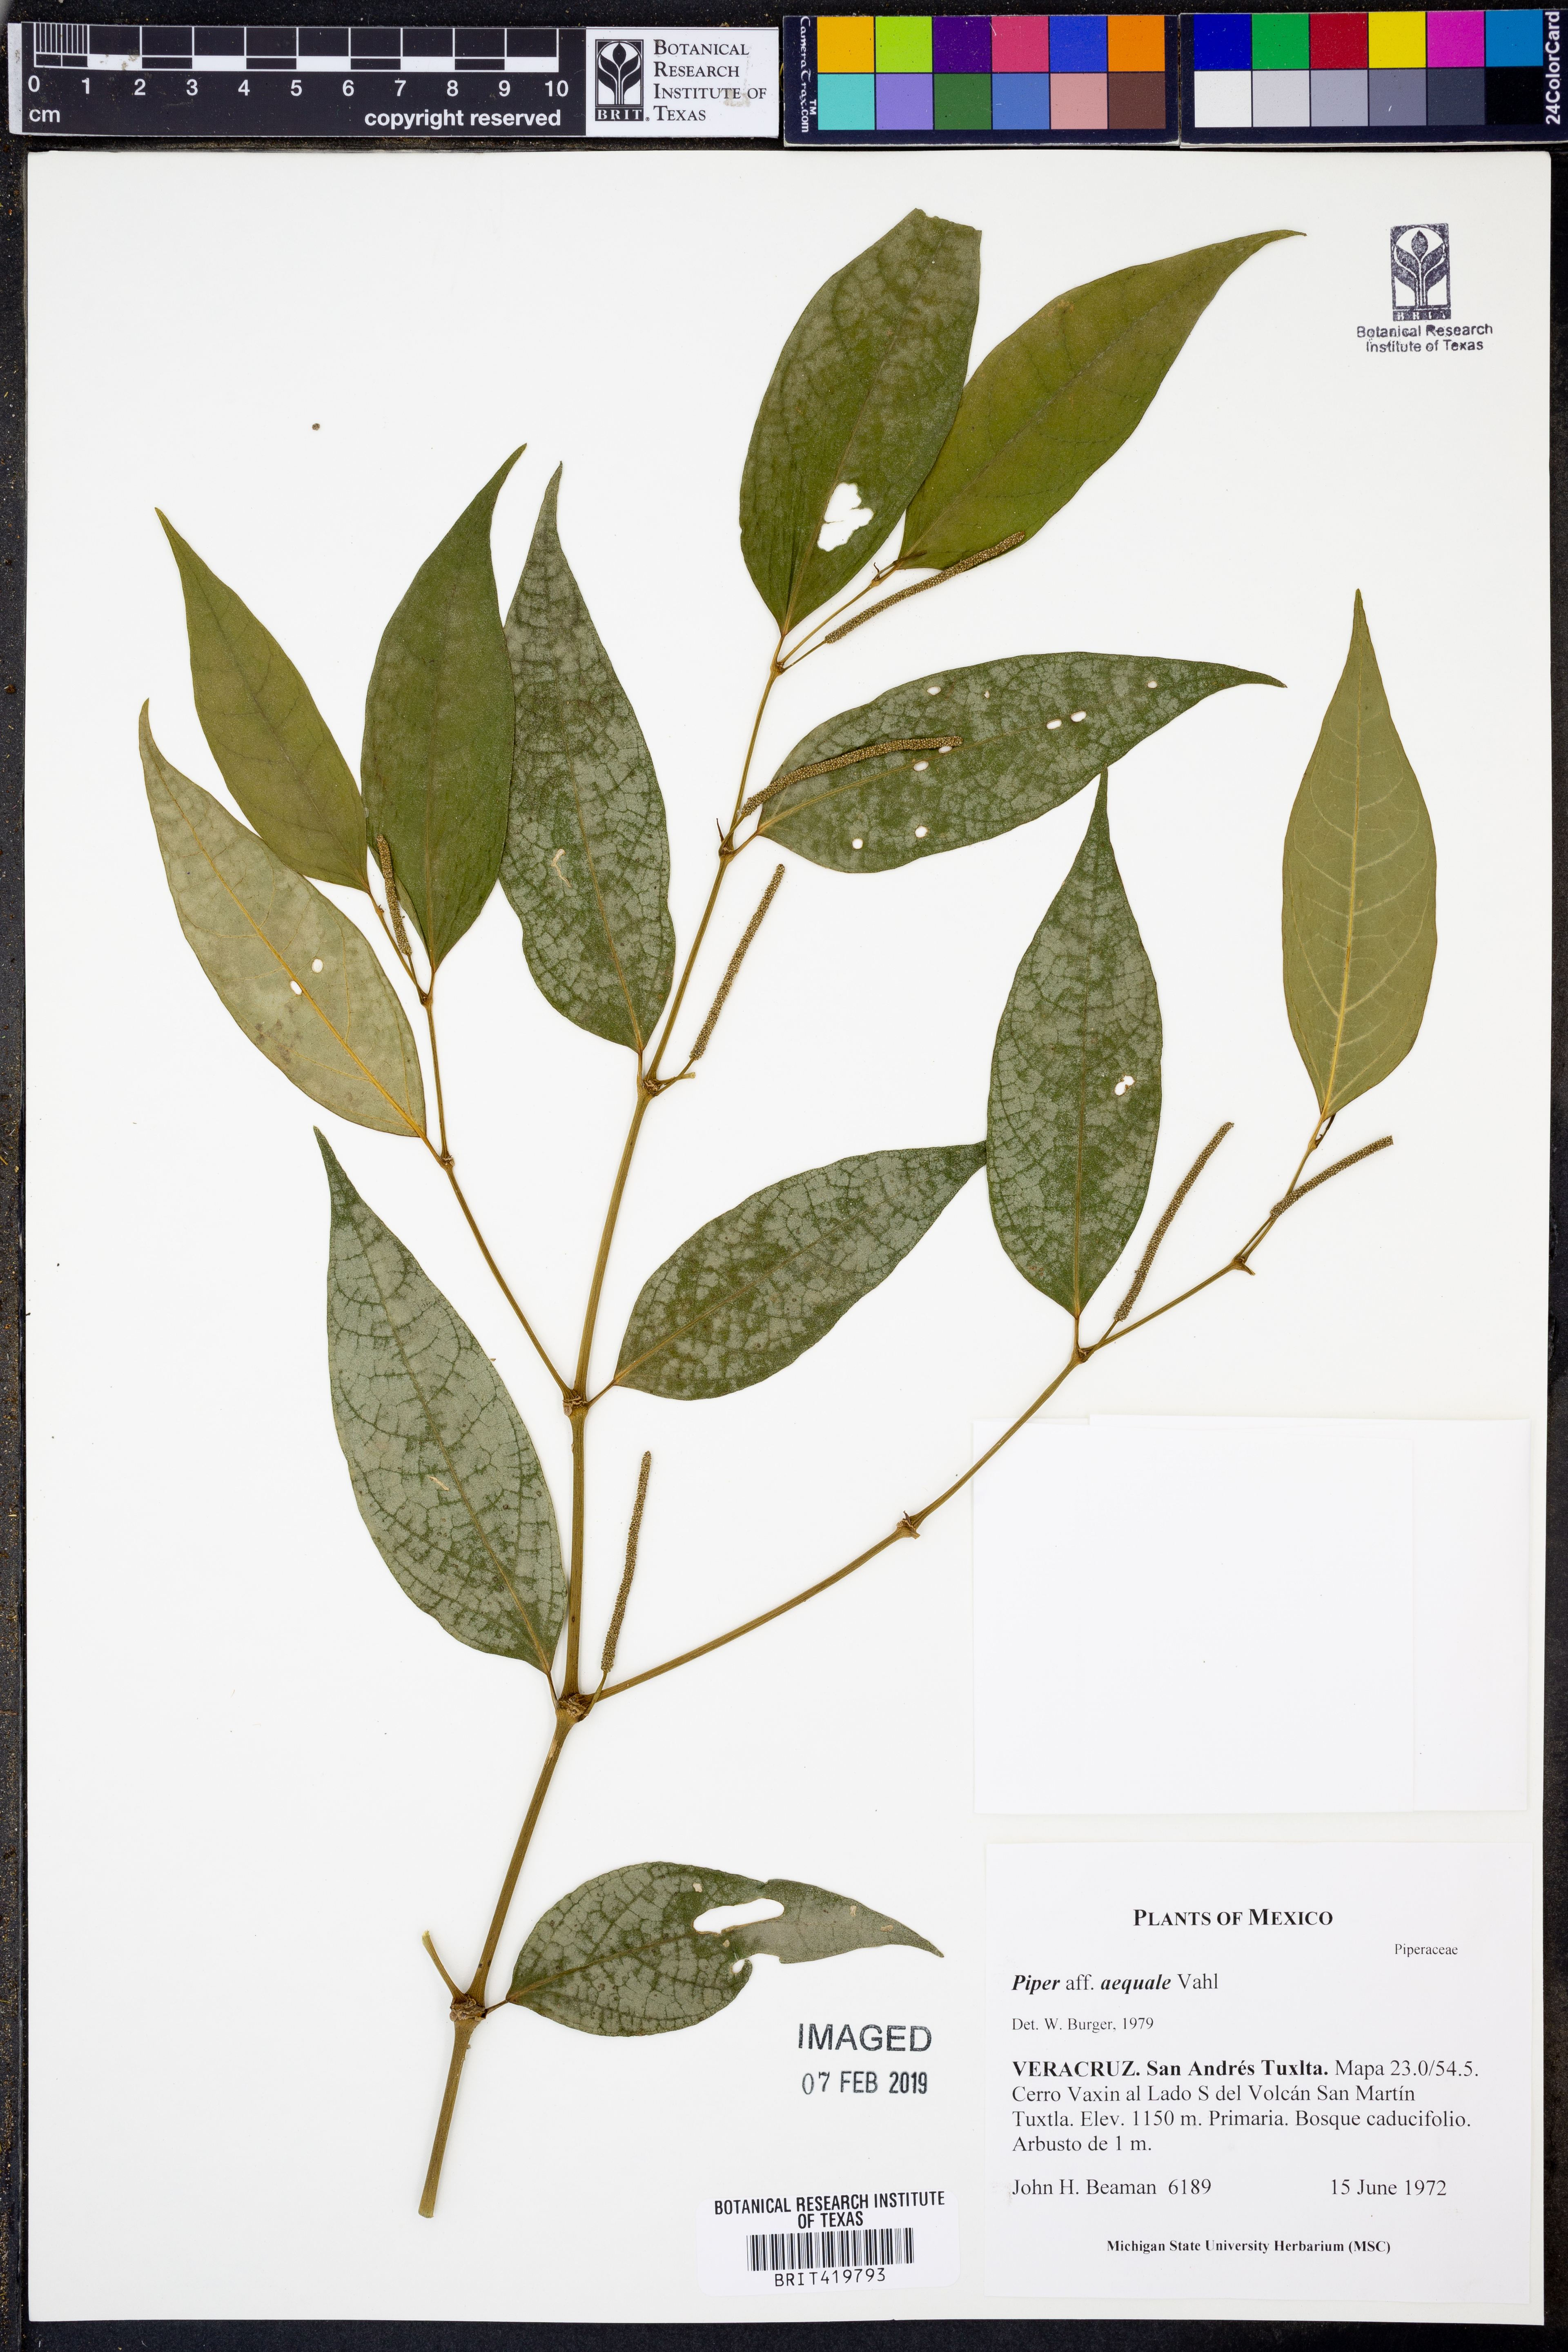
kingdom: Plantae
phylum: Tracheophyta
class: Magnoliopsida
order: Piperales
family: Piperaceae
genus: Piper
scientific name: Piper aequale
